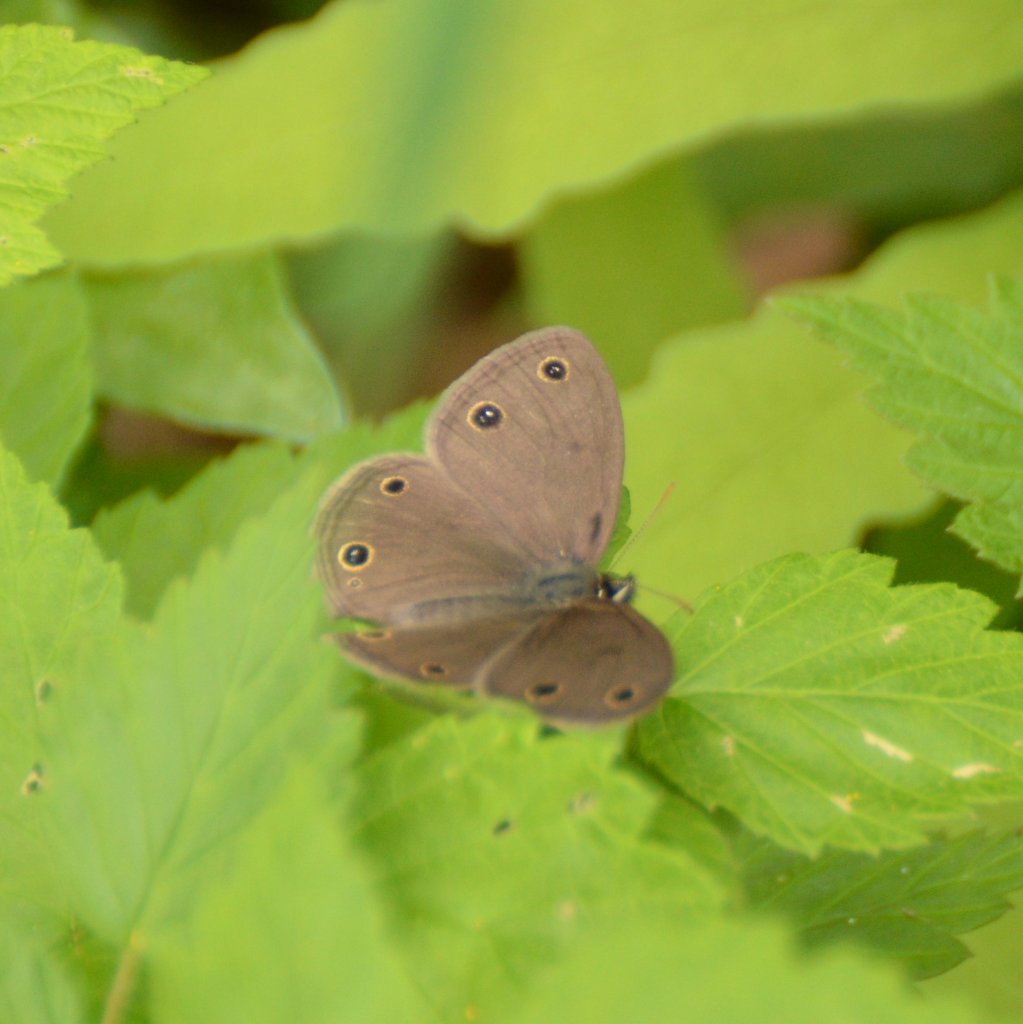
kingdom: Animalia
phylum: Arthropoda
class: Insecta
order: Lepidoptera
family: Nymphalidae
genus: Euptychia
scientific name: Euptychia cymela
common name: Little Wood Satyr
